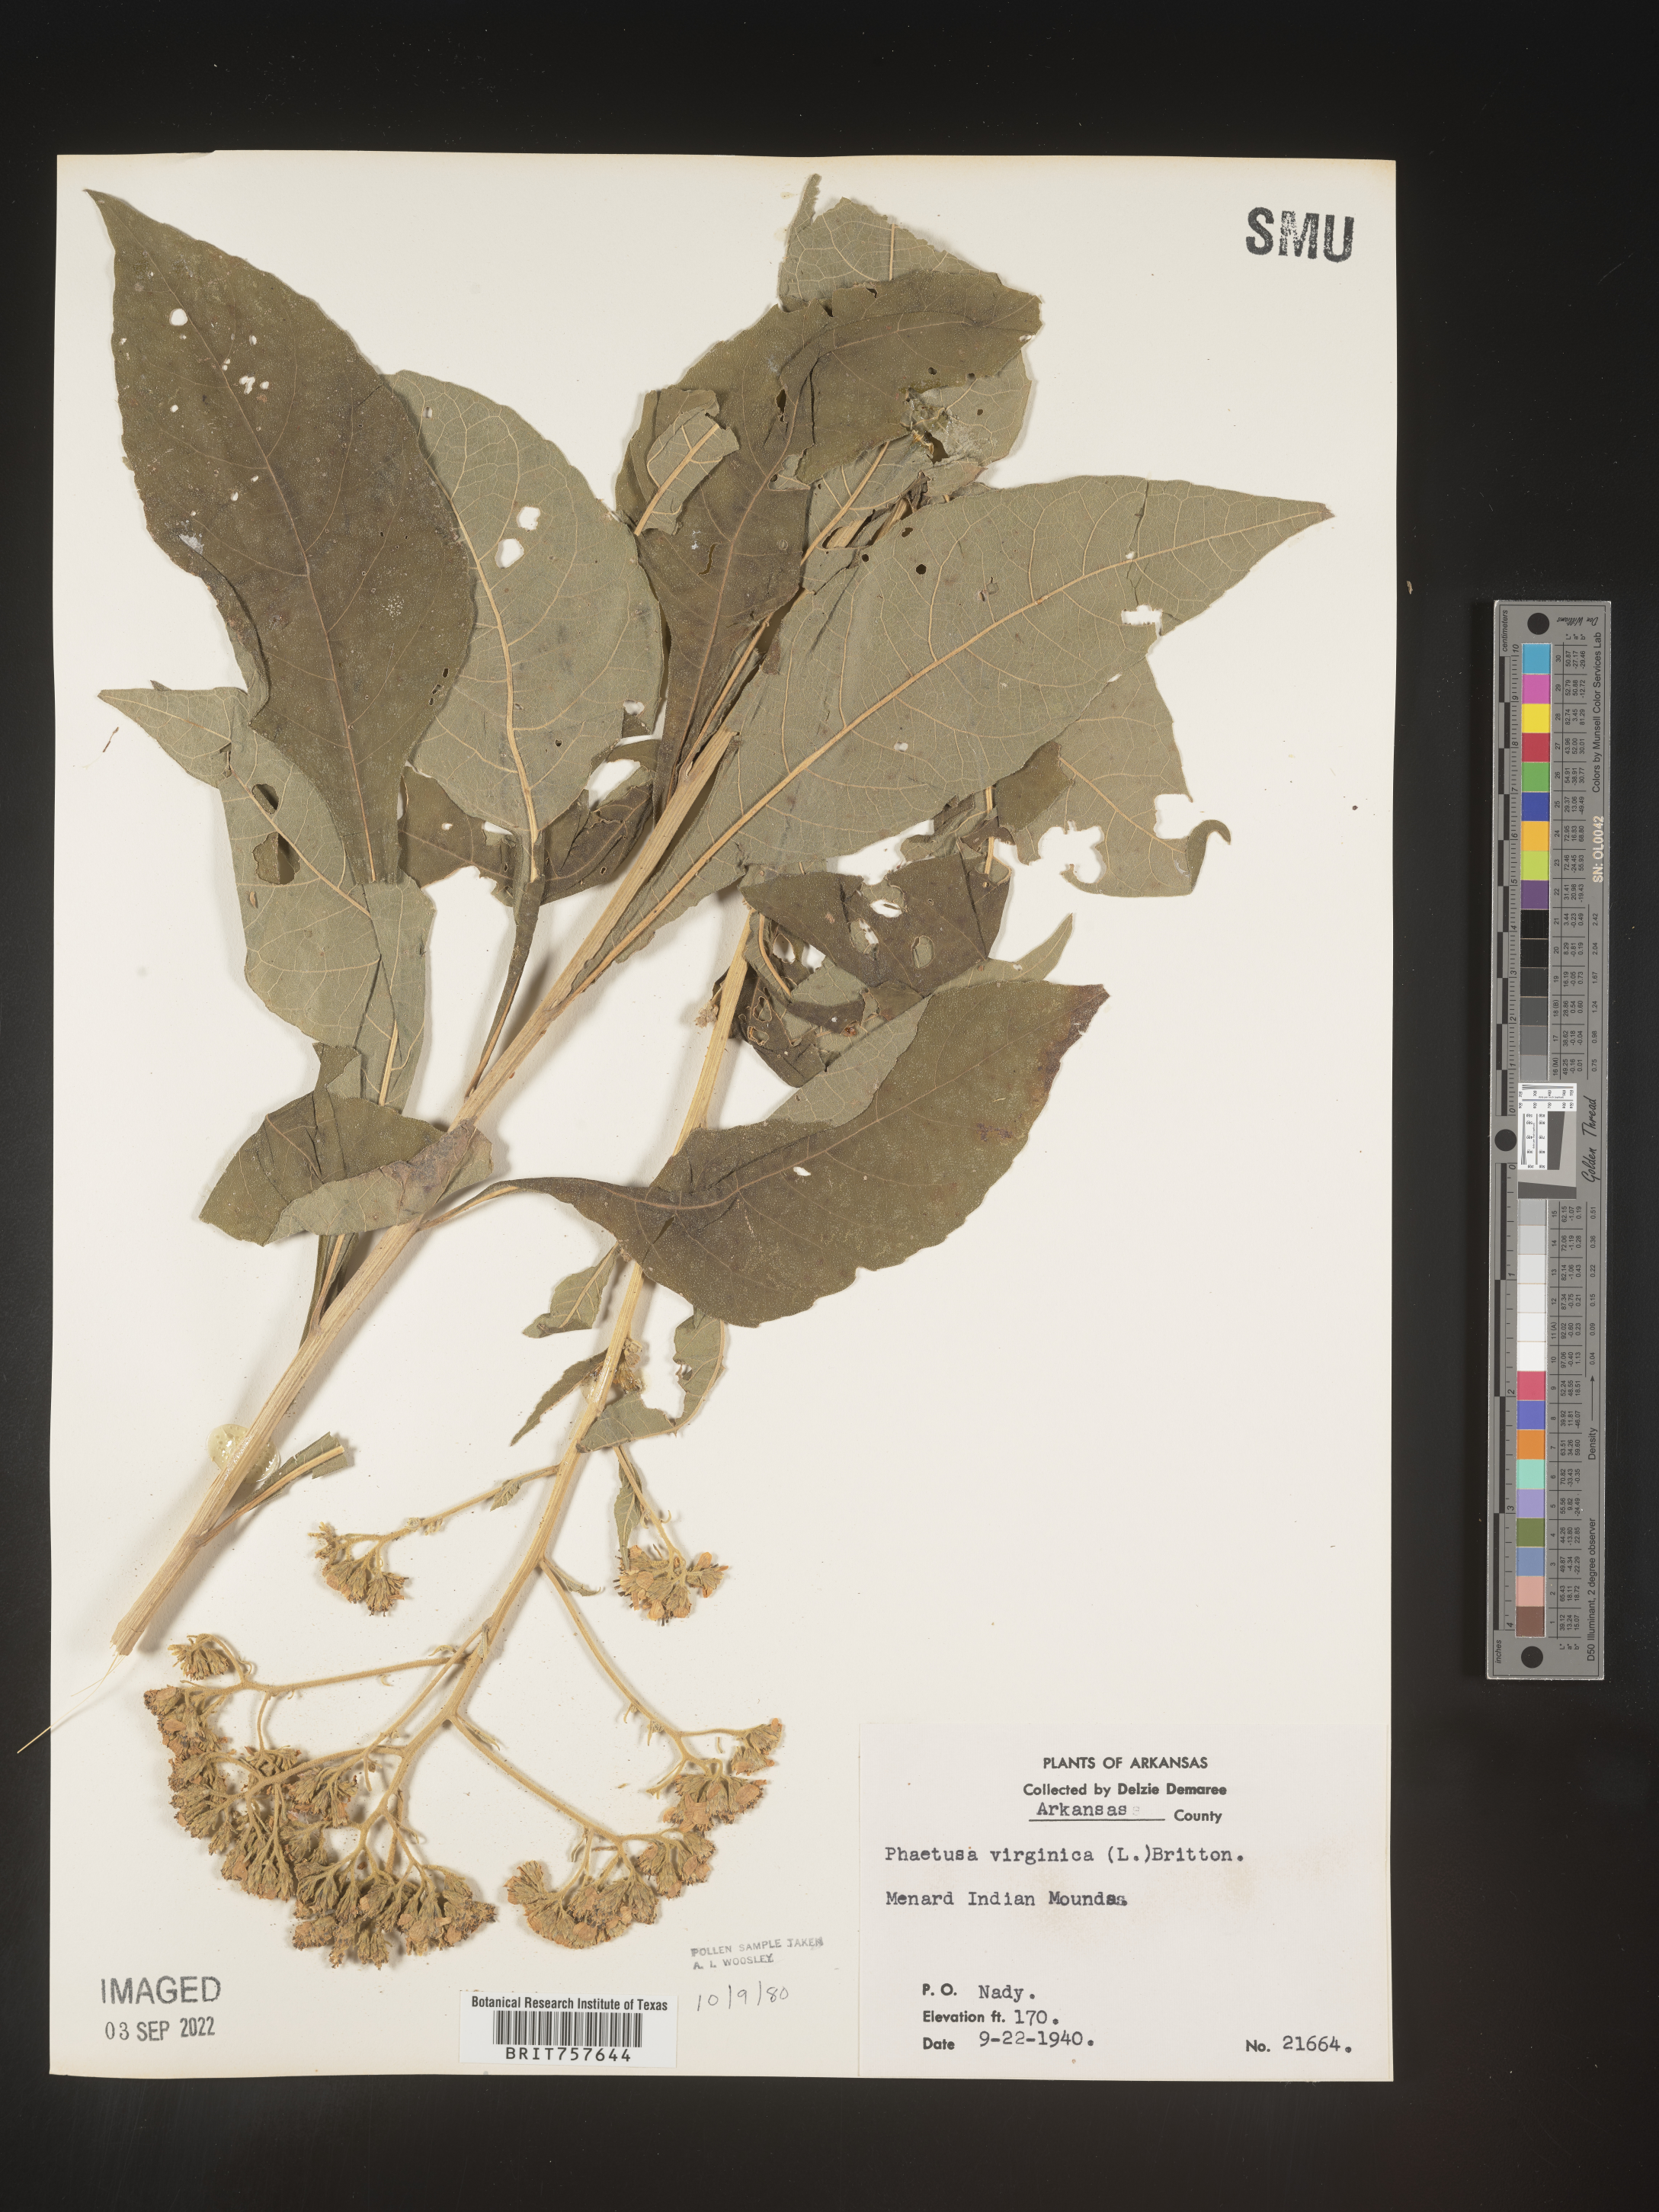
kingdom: Plantae
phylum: Tracheophyta
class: Magnoliopsida
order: Asterales
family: Asteraceae
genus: Verbesina
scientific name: Verbesina virginica
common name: Frostweed
